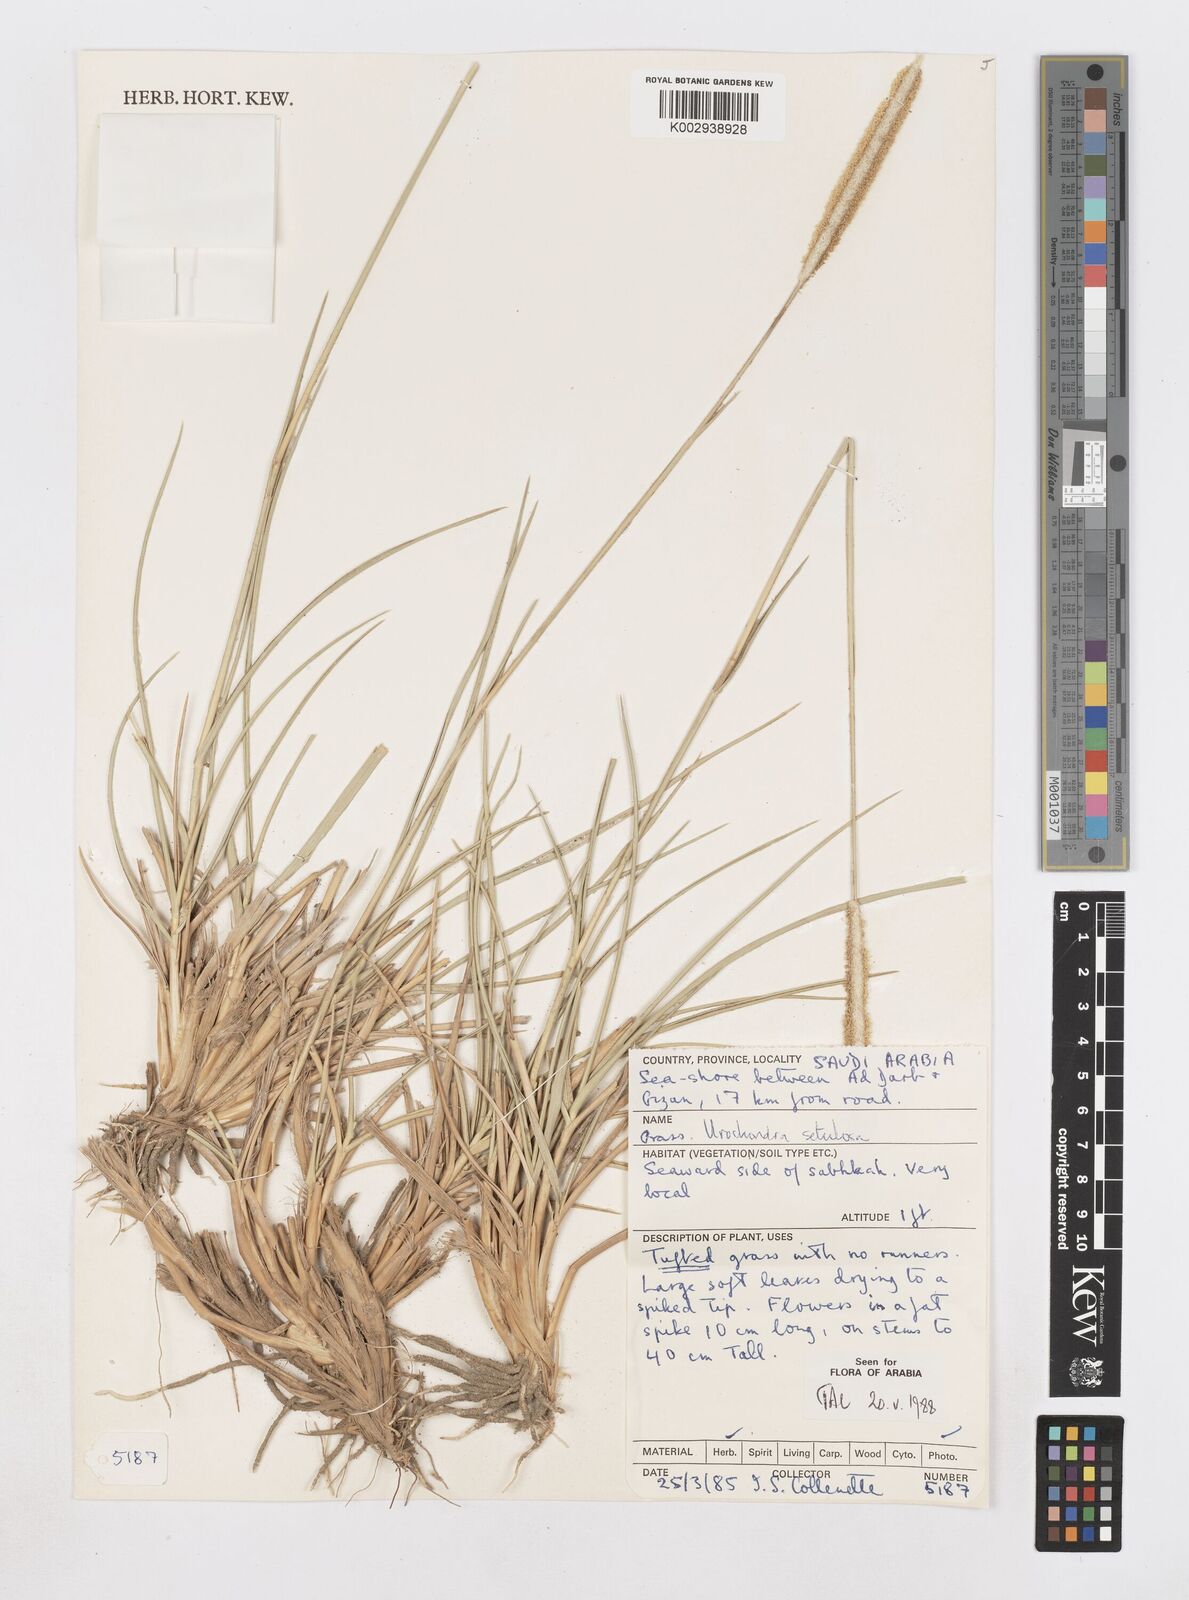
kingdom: Plantae
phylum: Tracheophyta
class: Liliopsida
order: Poales
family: Poaceae
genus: Urochondra
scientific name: Urochondra setulosa
